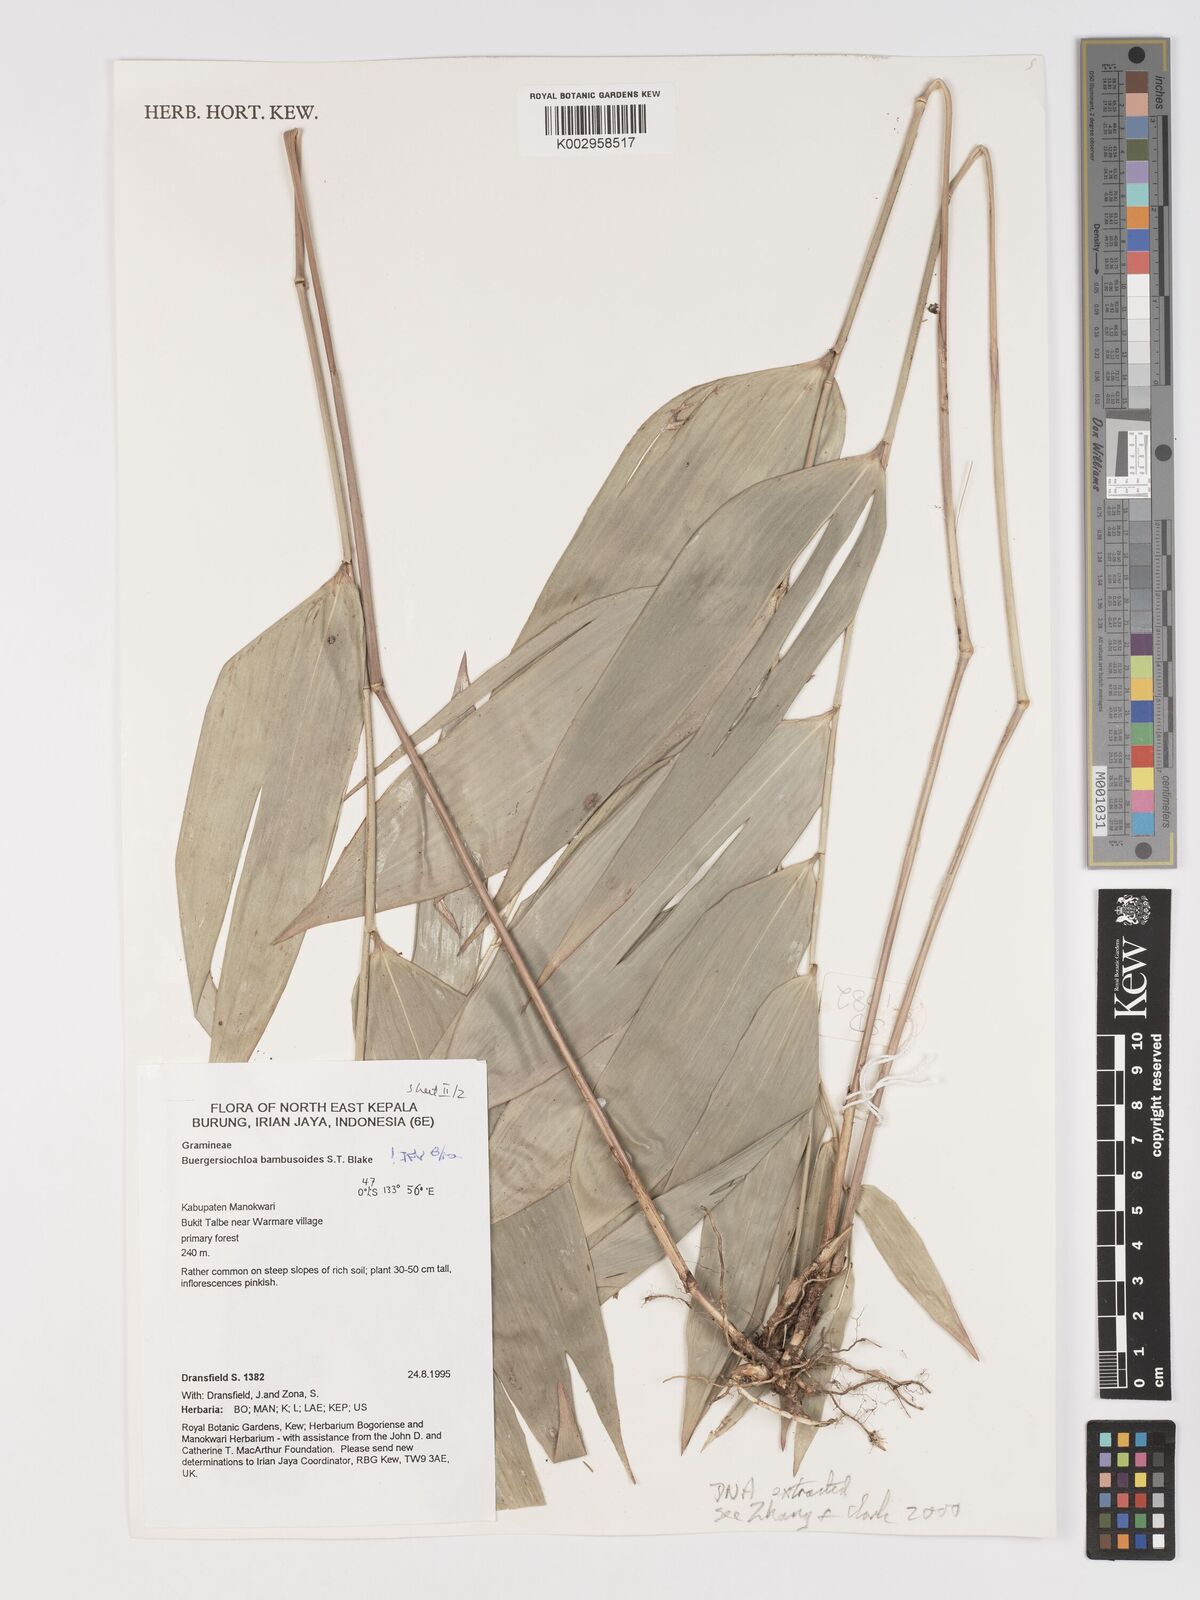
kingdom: Plantae
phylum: Tracheophyta
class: Liliopsida
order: Poales
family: Poaceae
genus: Buergersiochloa
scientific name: Buergersiochloa bambusoides
